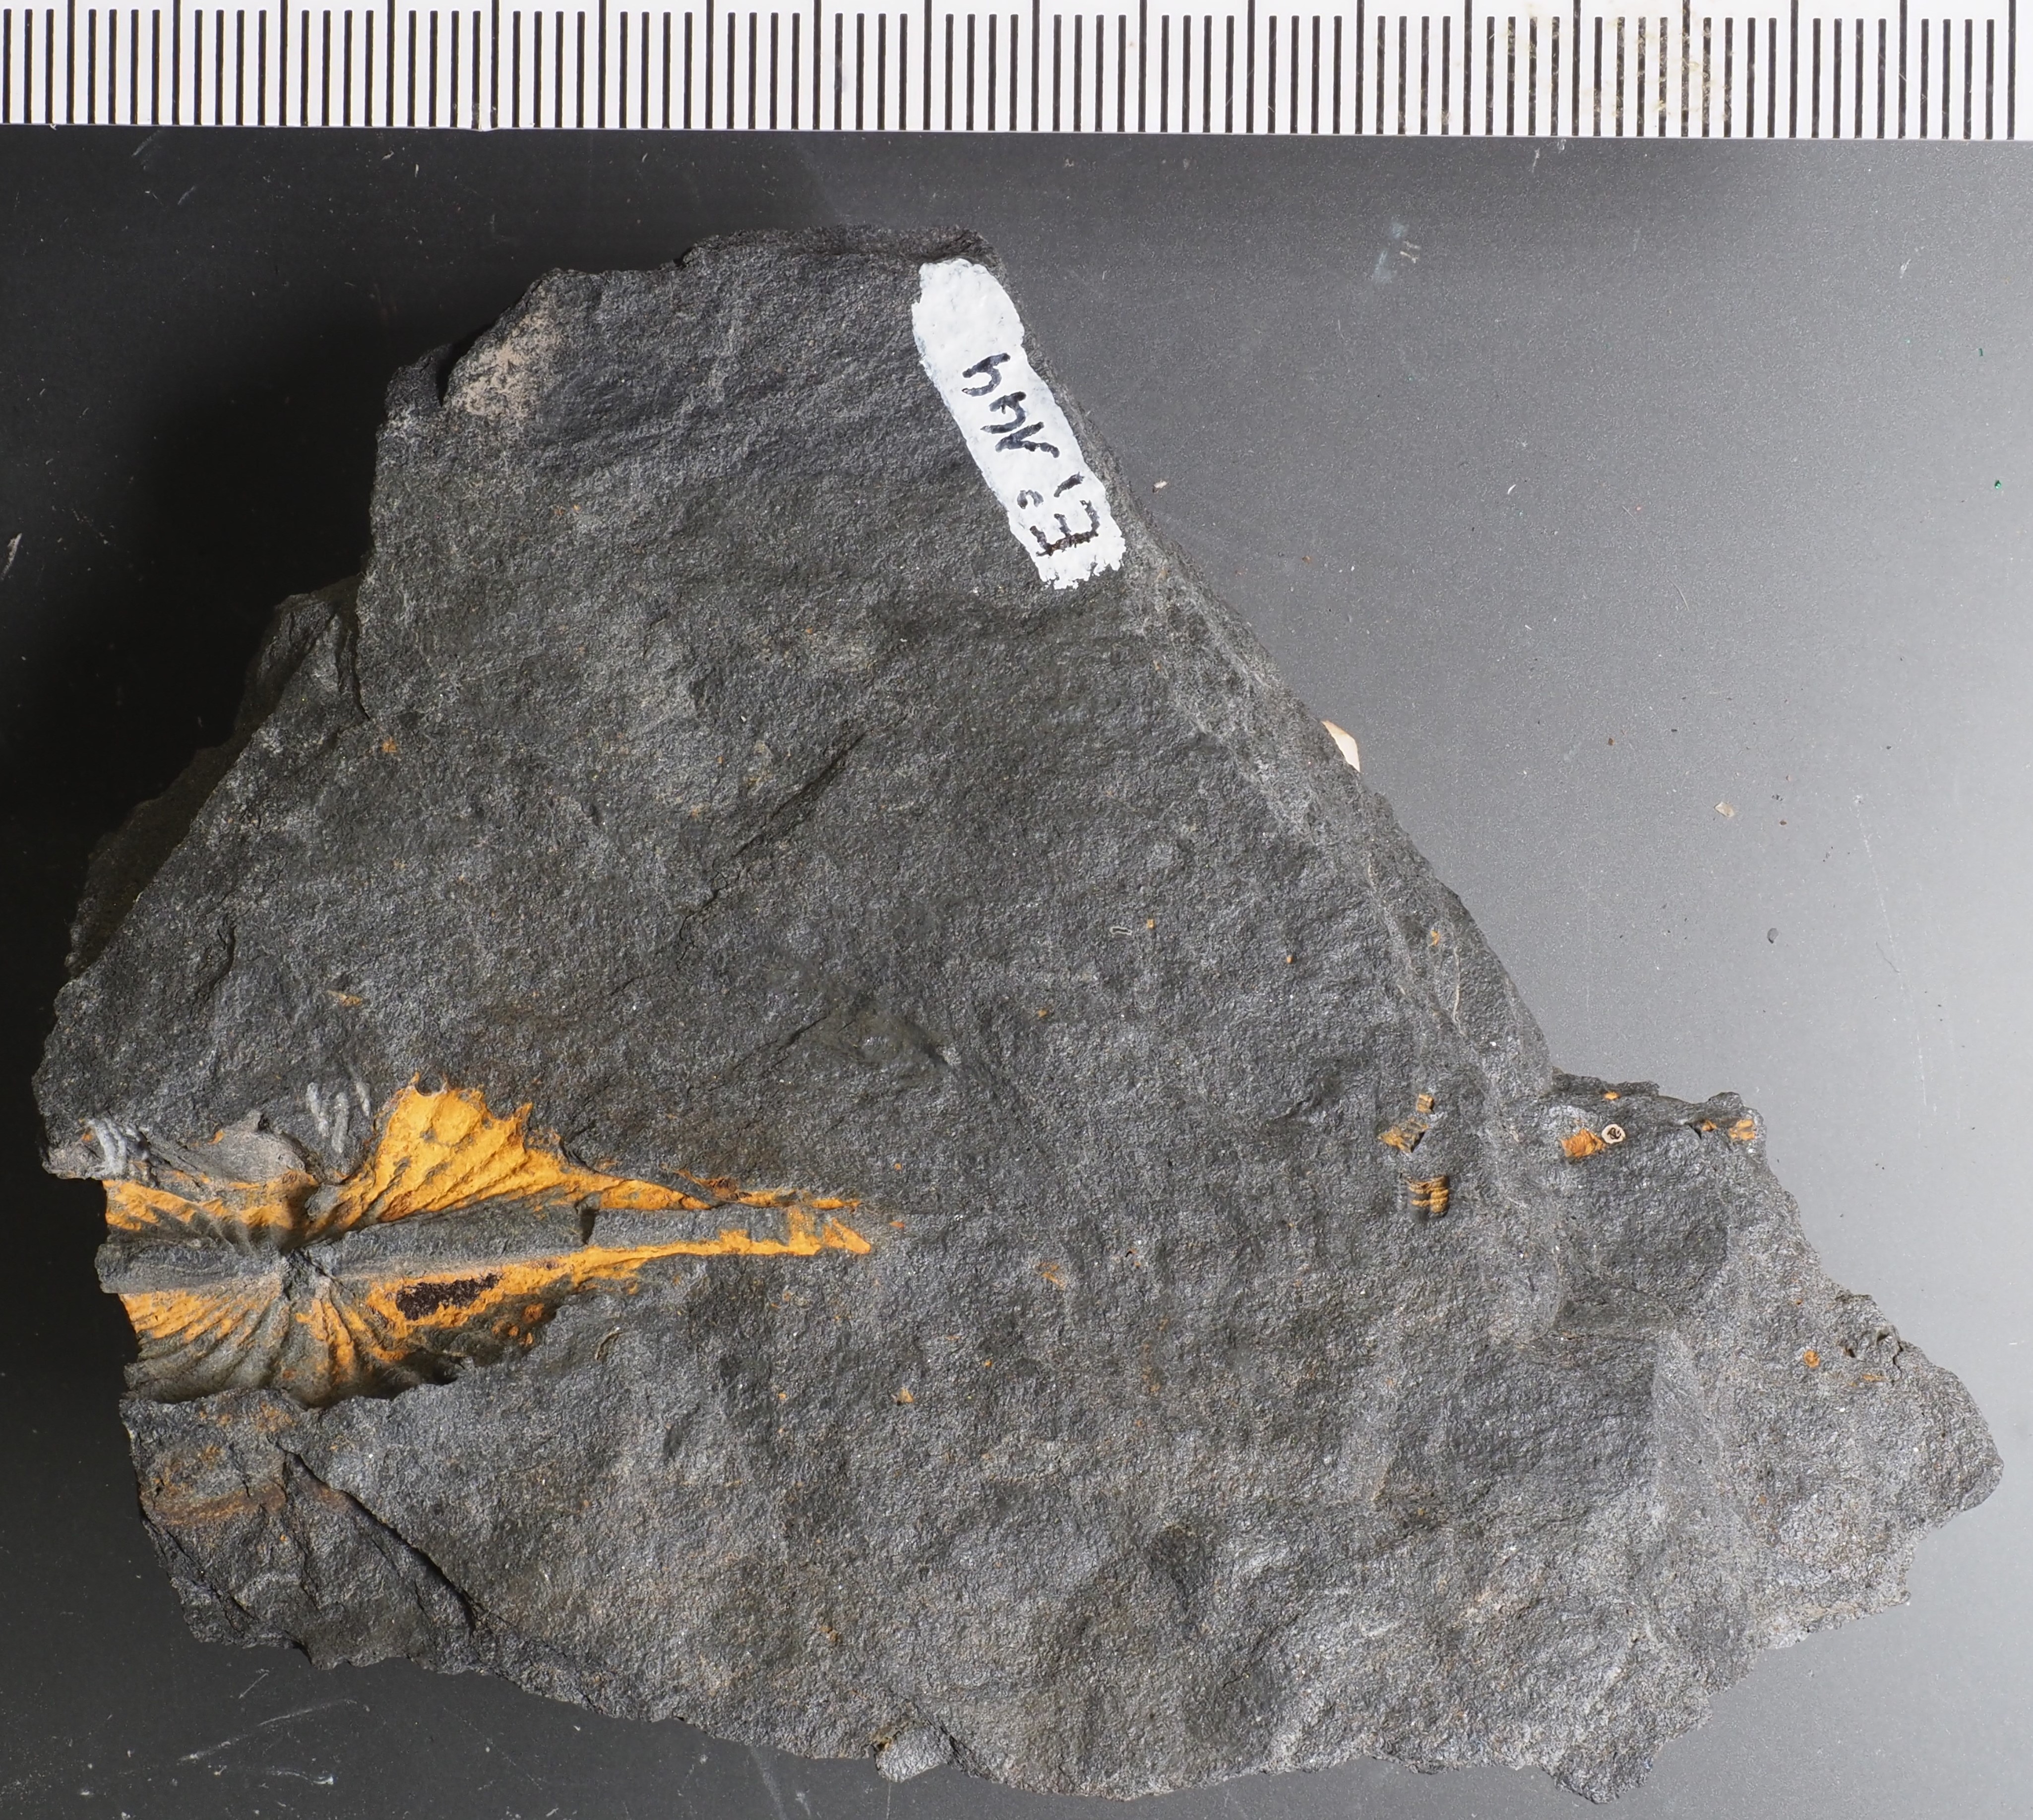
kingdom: Animalia
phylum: Brachiopoda
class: Rhynchonellata
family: Delthyrididae
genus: Euryspirifer
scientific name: Euryspirifer Spirifer assimilis
